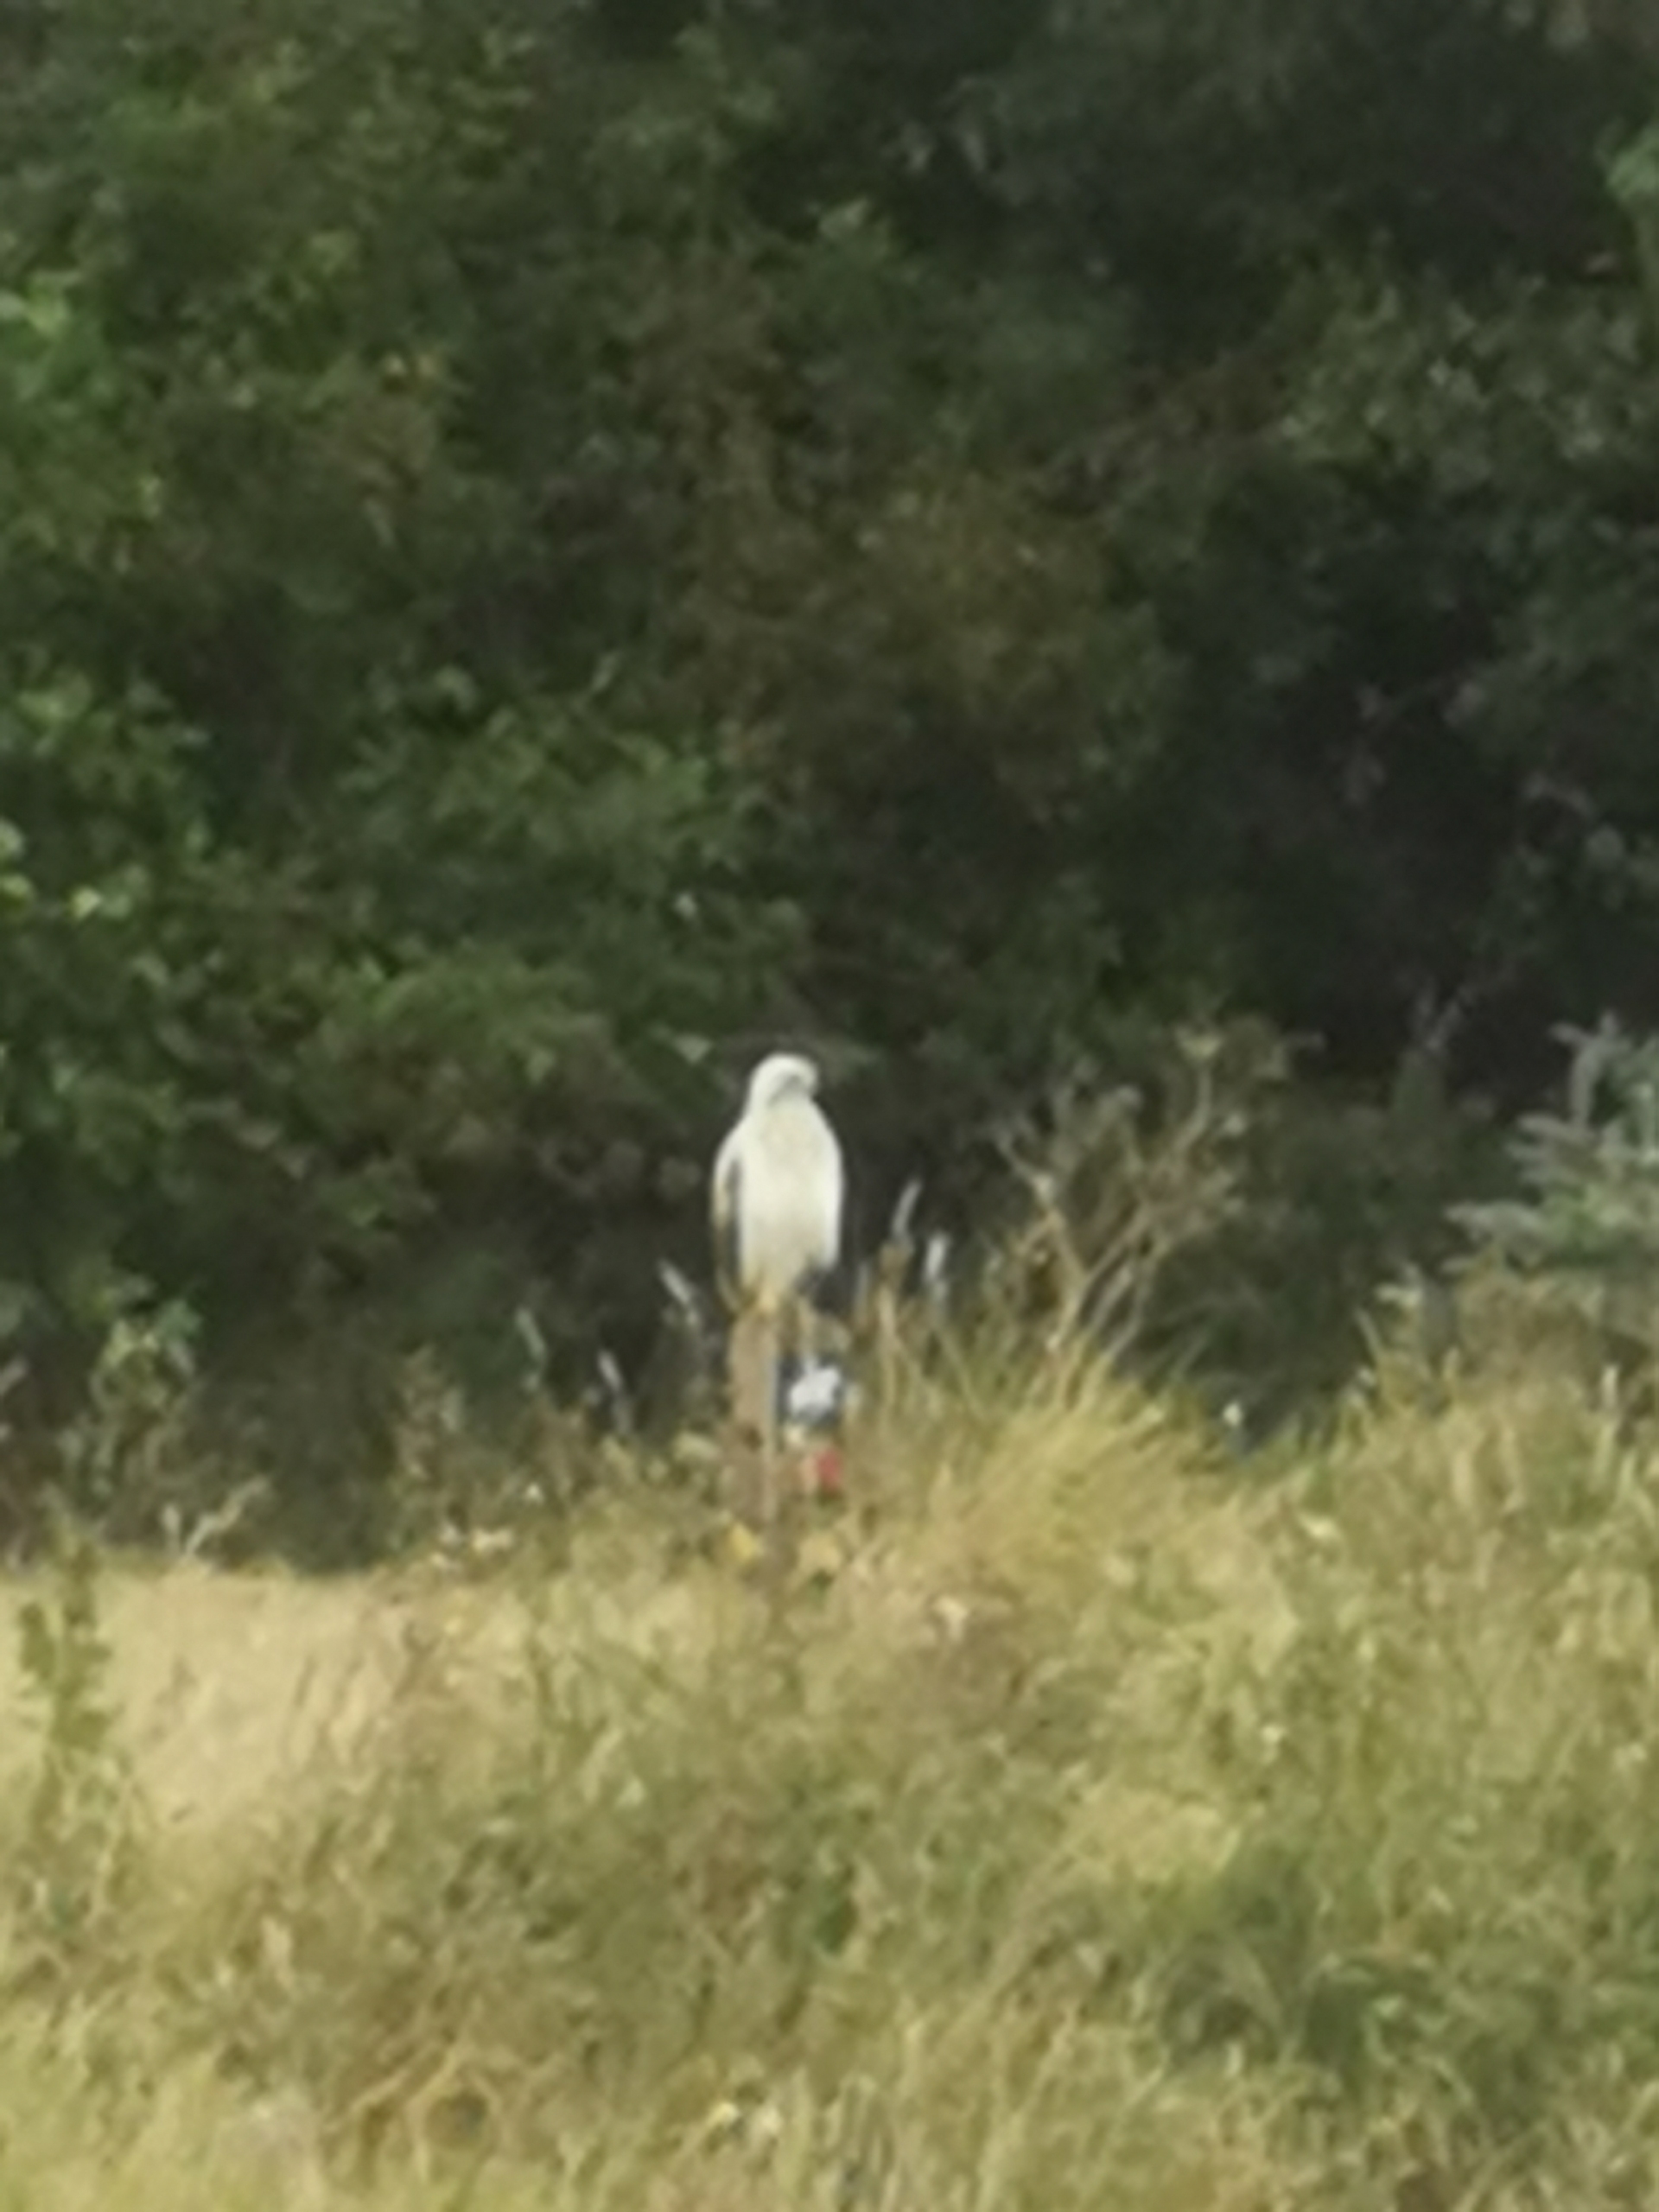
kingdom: Animalia
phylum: Chordata
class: Aves
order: Accipitriformes
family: Accipitridae
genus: Buteo
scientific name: Buteo buteo
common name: Musvåge
